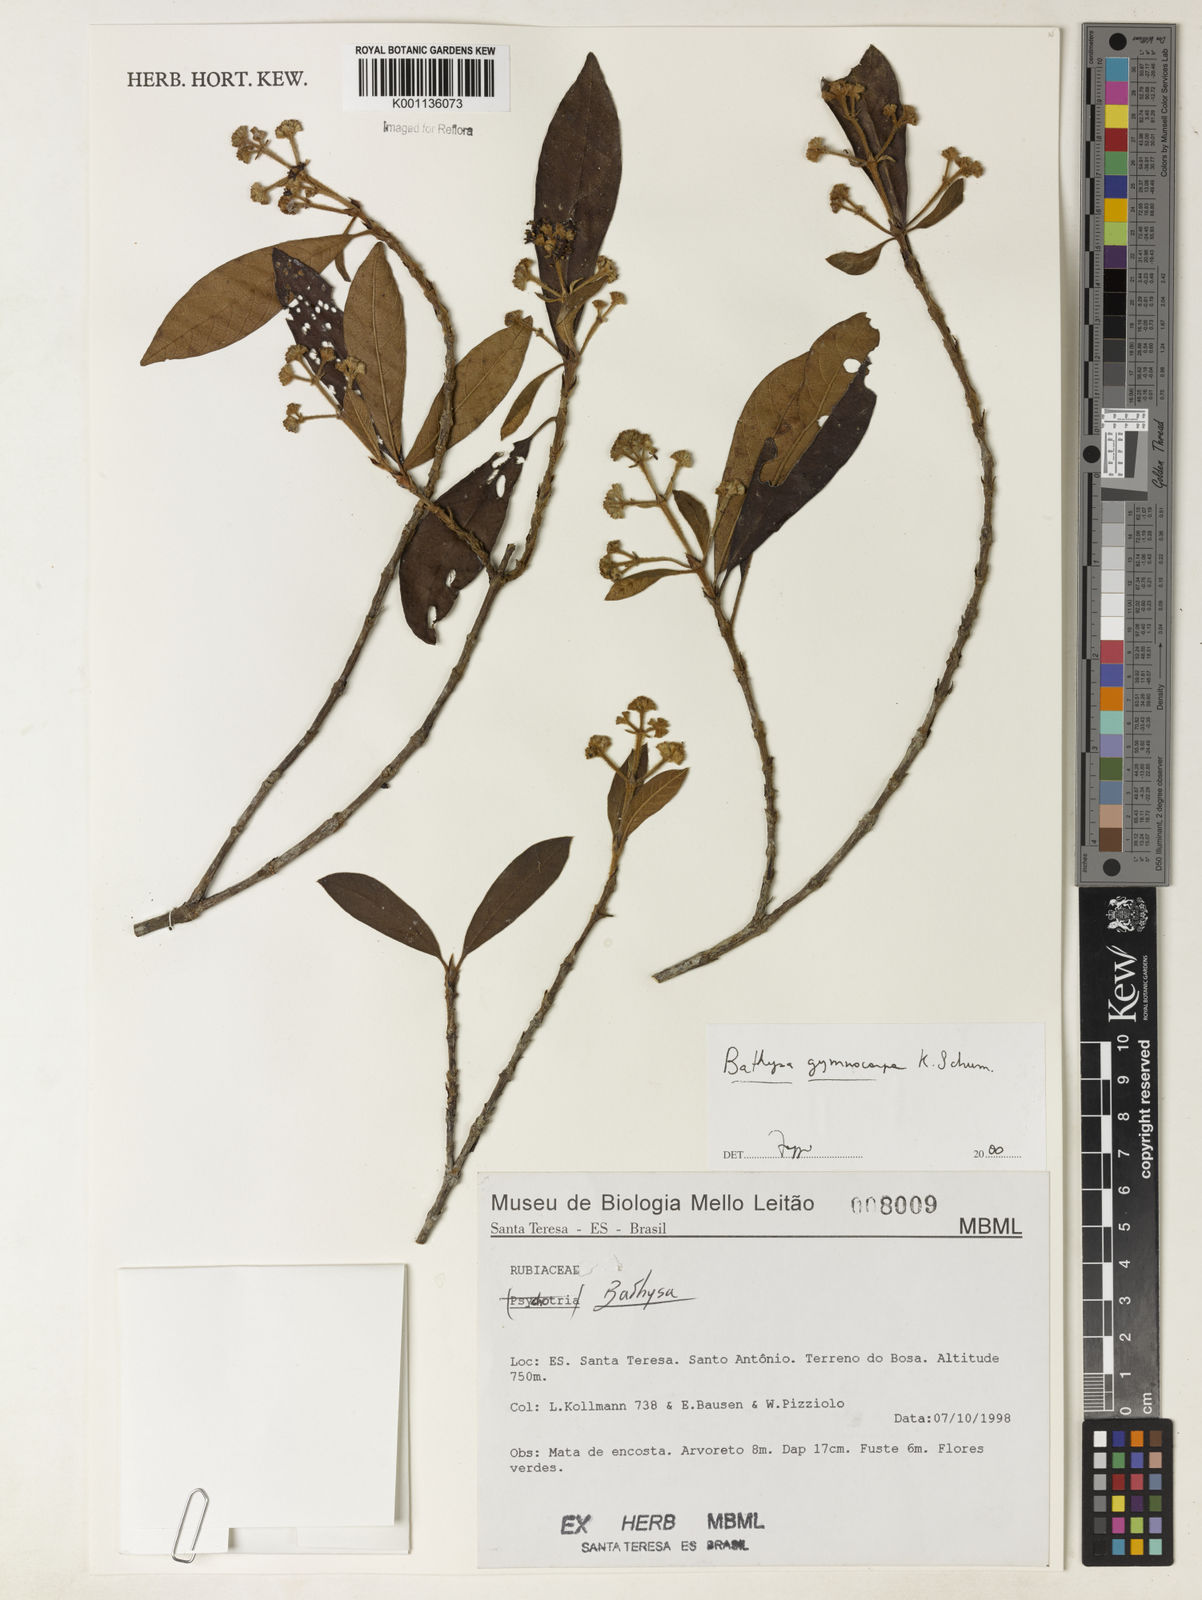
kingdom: Plantae
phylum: Tracheophyta
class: Magnoliopsida
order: Gentianales
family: Rubiaceae
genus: Bathysa
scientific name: Bathysa gymnocarpa
